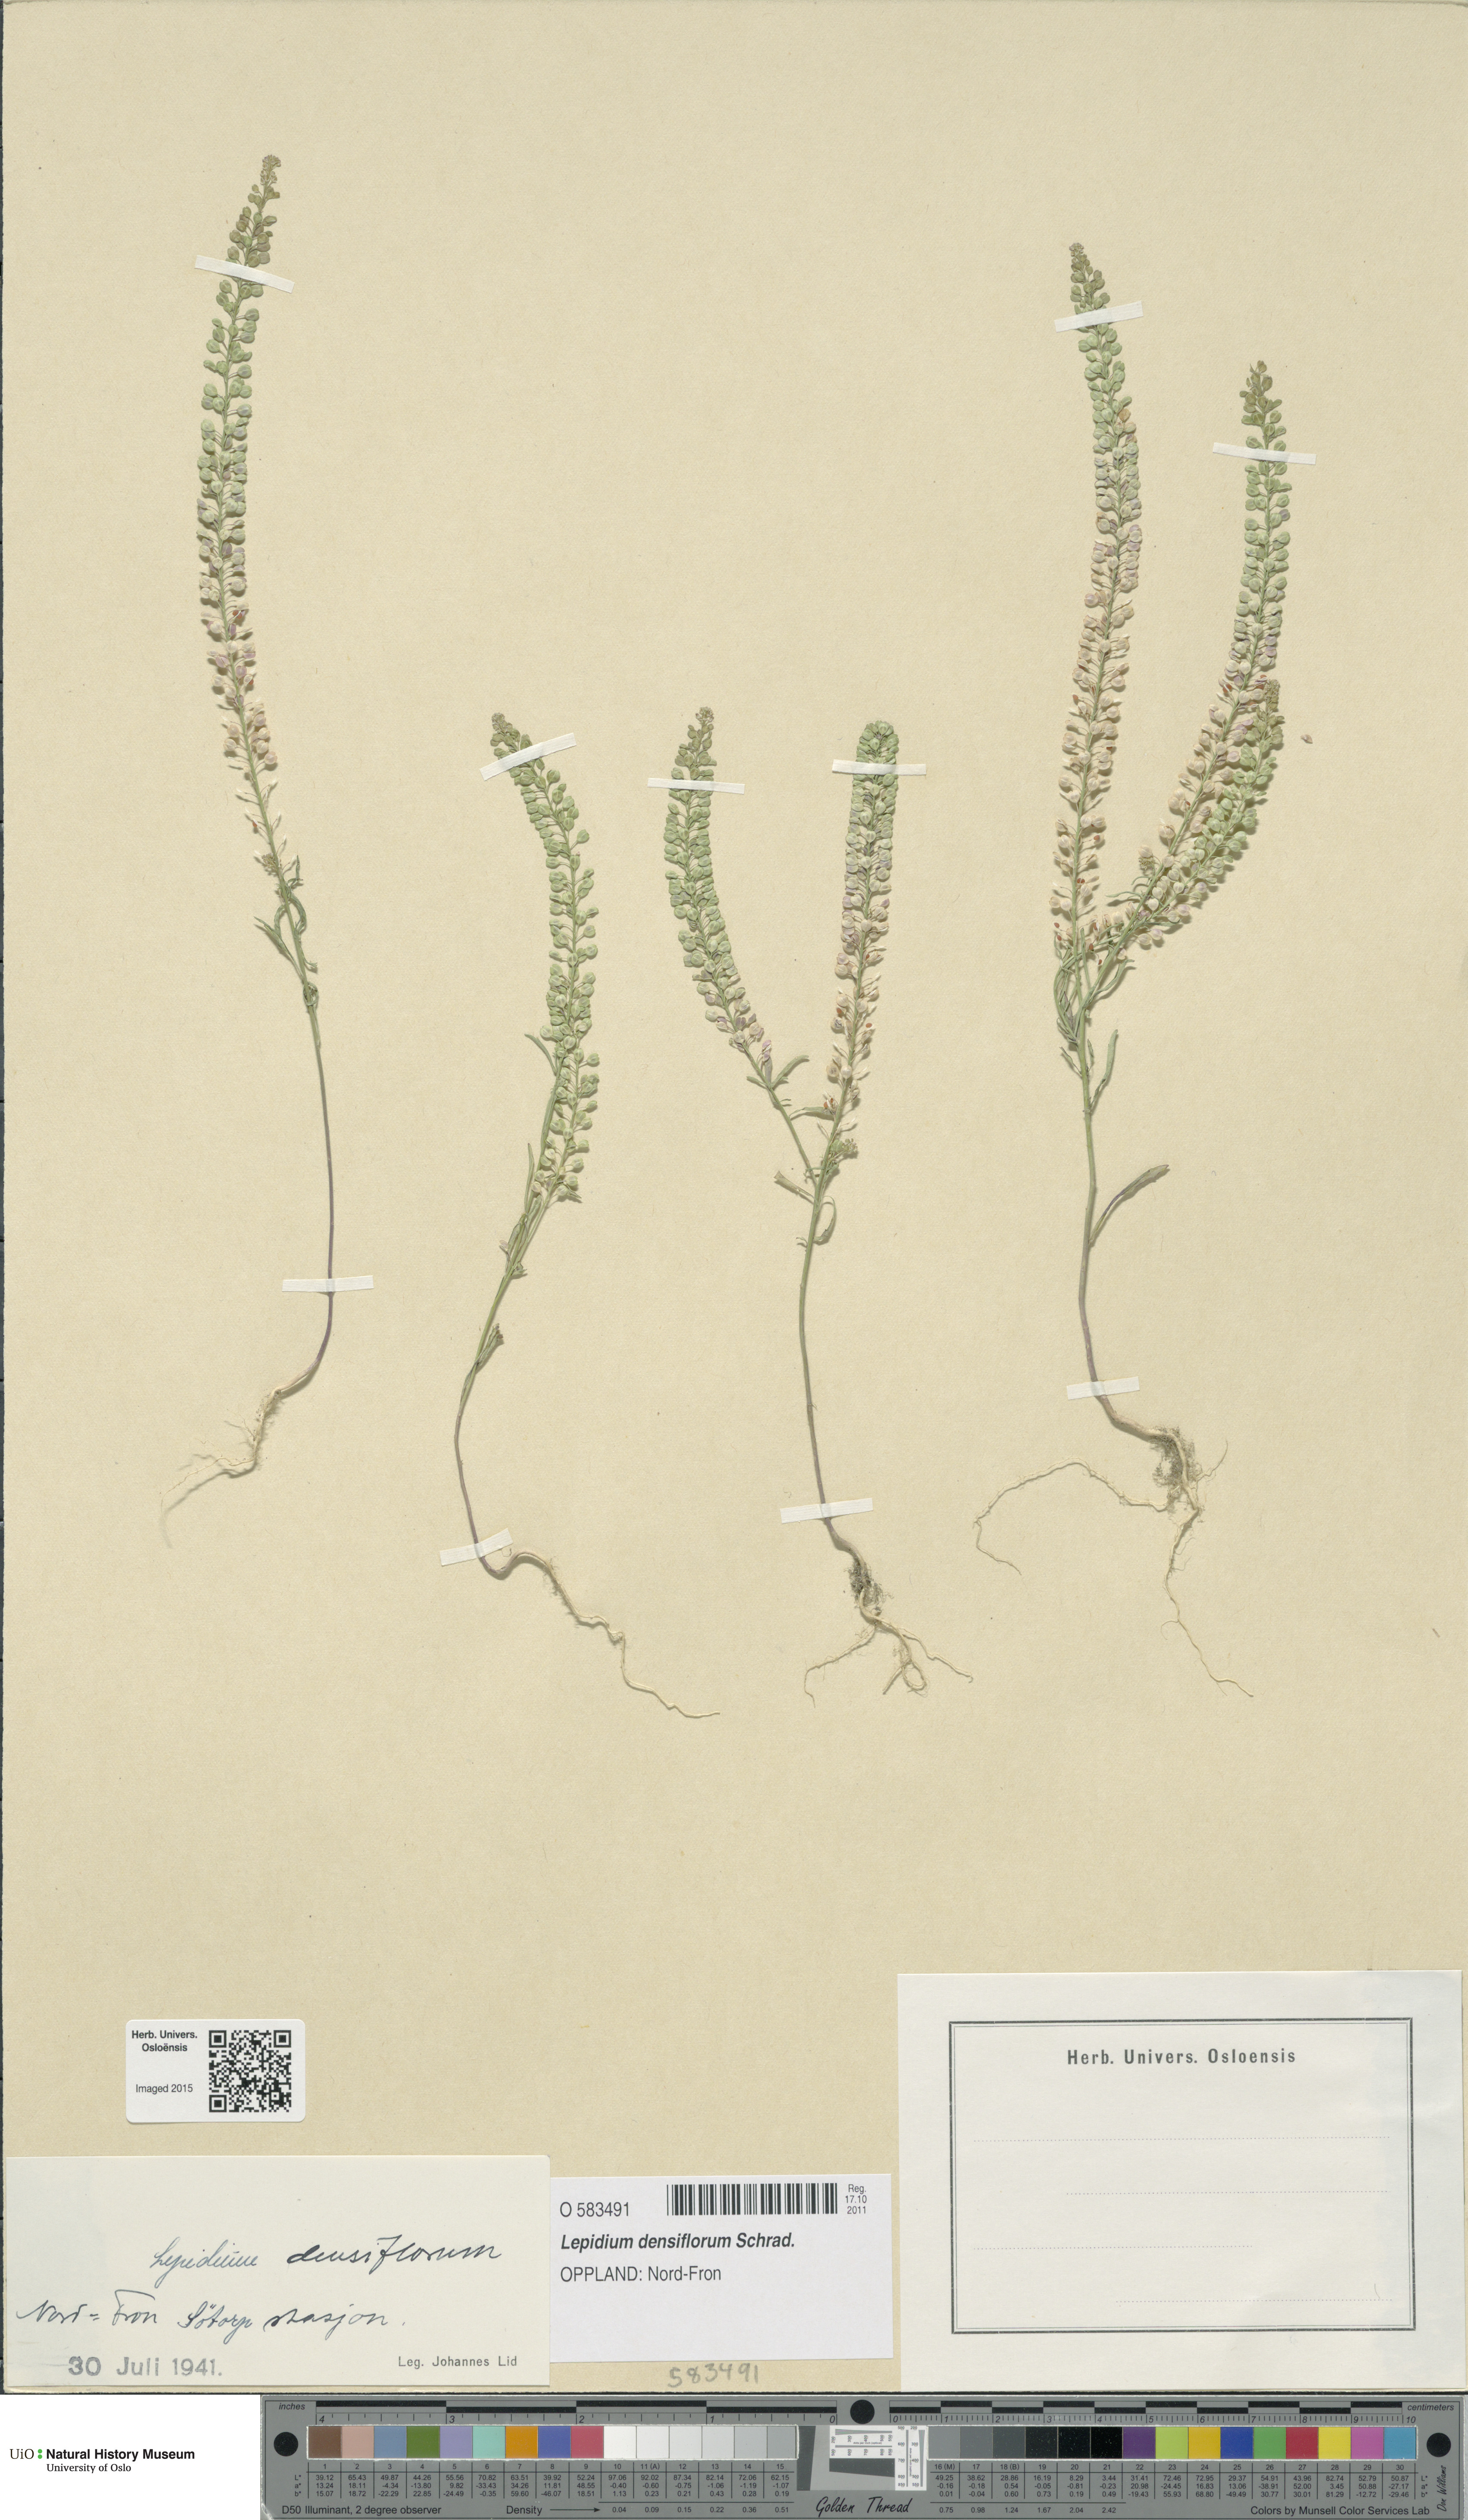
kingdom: Plantae
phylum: Tracheophyta
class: Magnoliopsida
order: Brassicales
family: Brassicaceae
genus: Lepidium
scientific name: Lepidium densiflorum
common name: Miner's pepperwort
